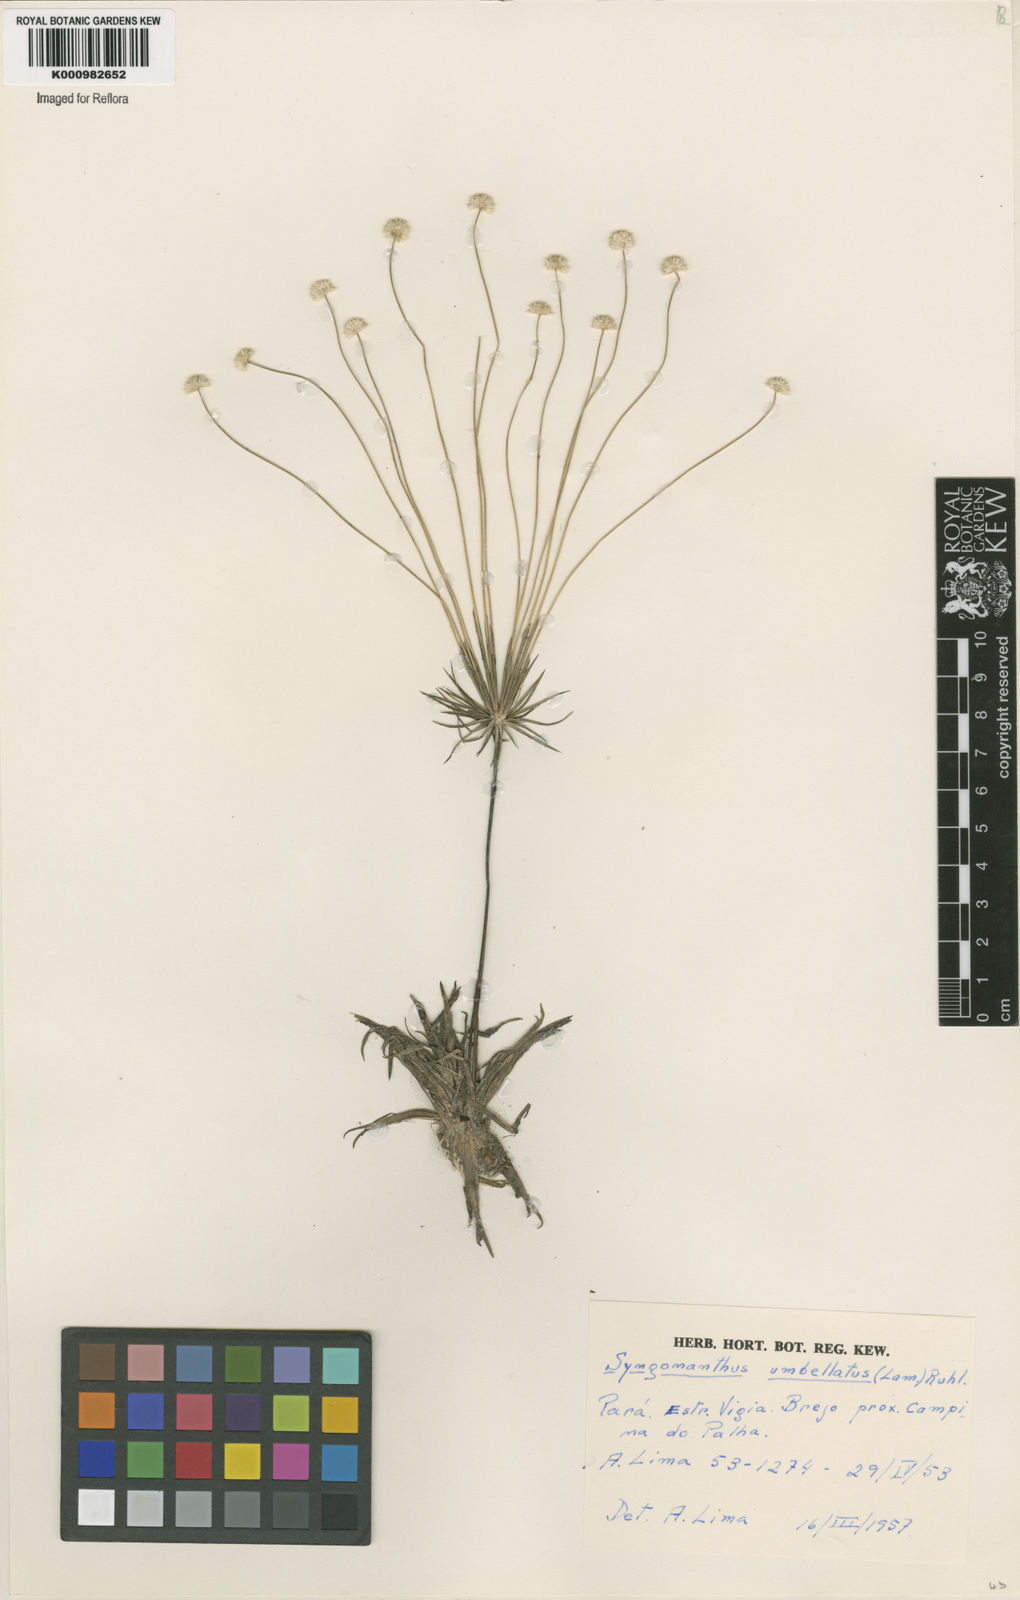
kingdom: Plantae
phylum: Tracheophyta
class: Liliopsida
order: Poales
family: Eriocaulaceae
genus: Syngonanthus
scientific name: Syngonanthus umbellatus
